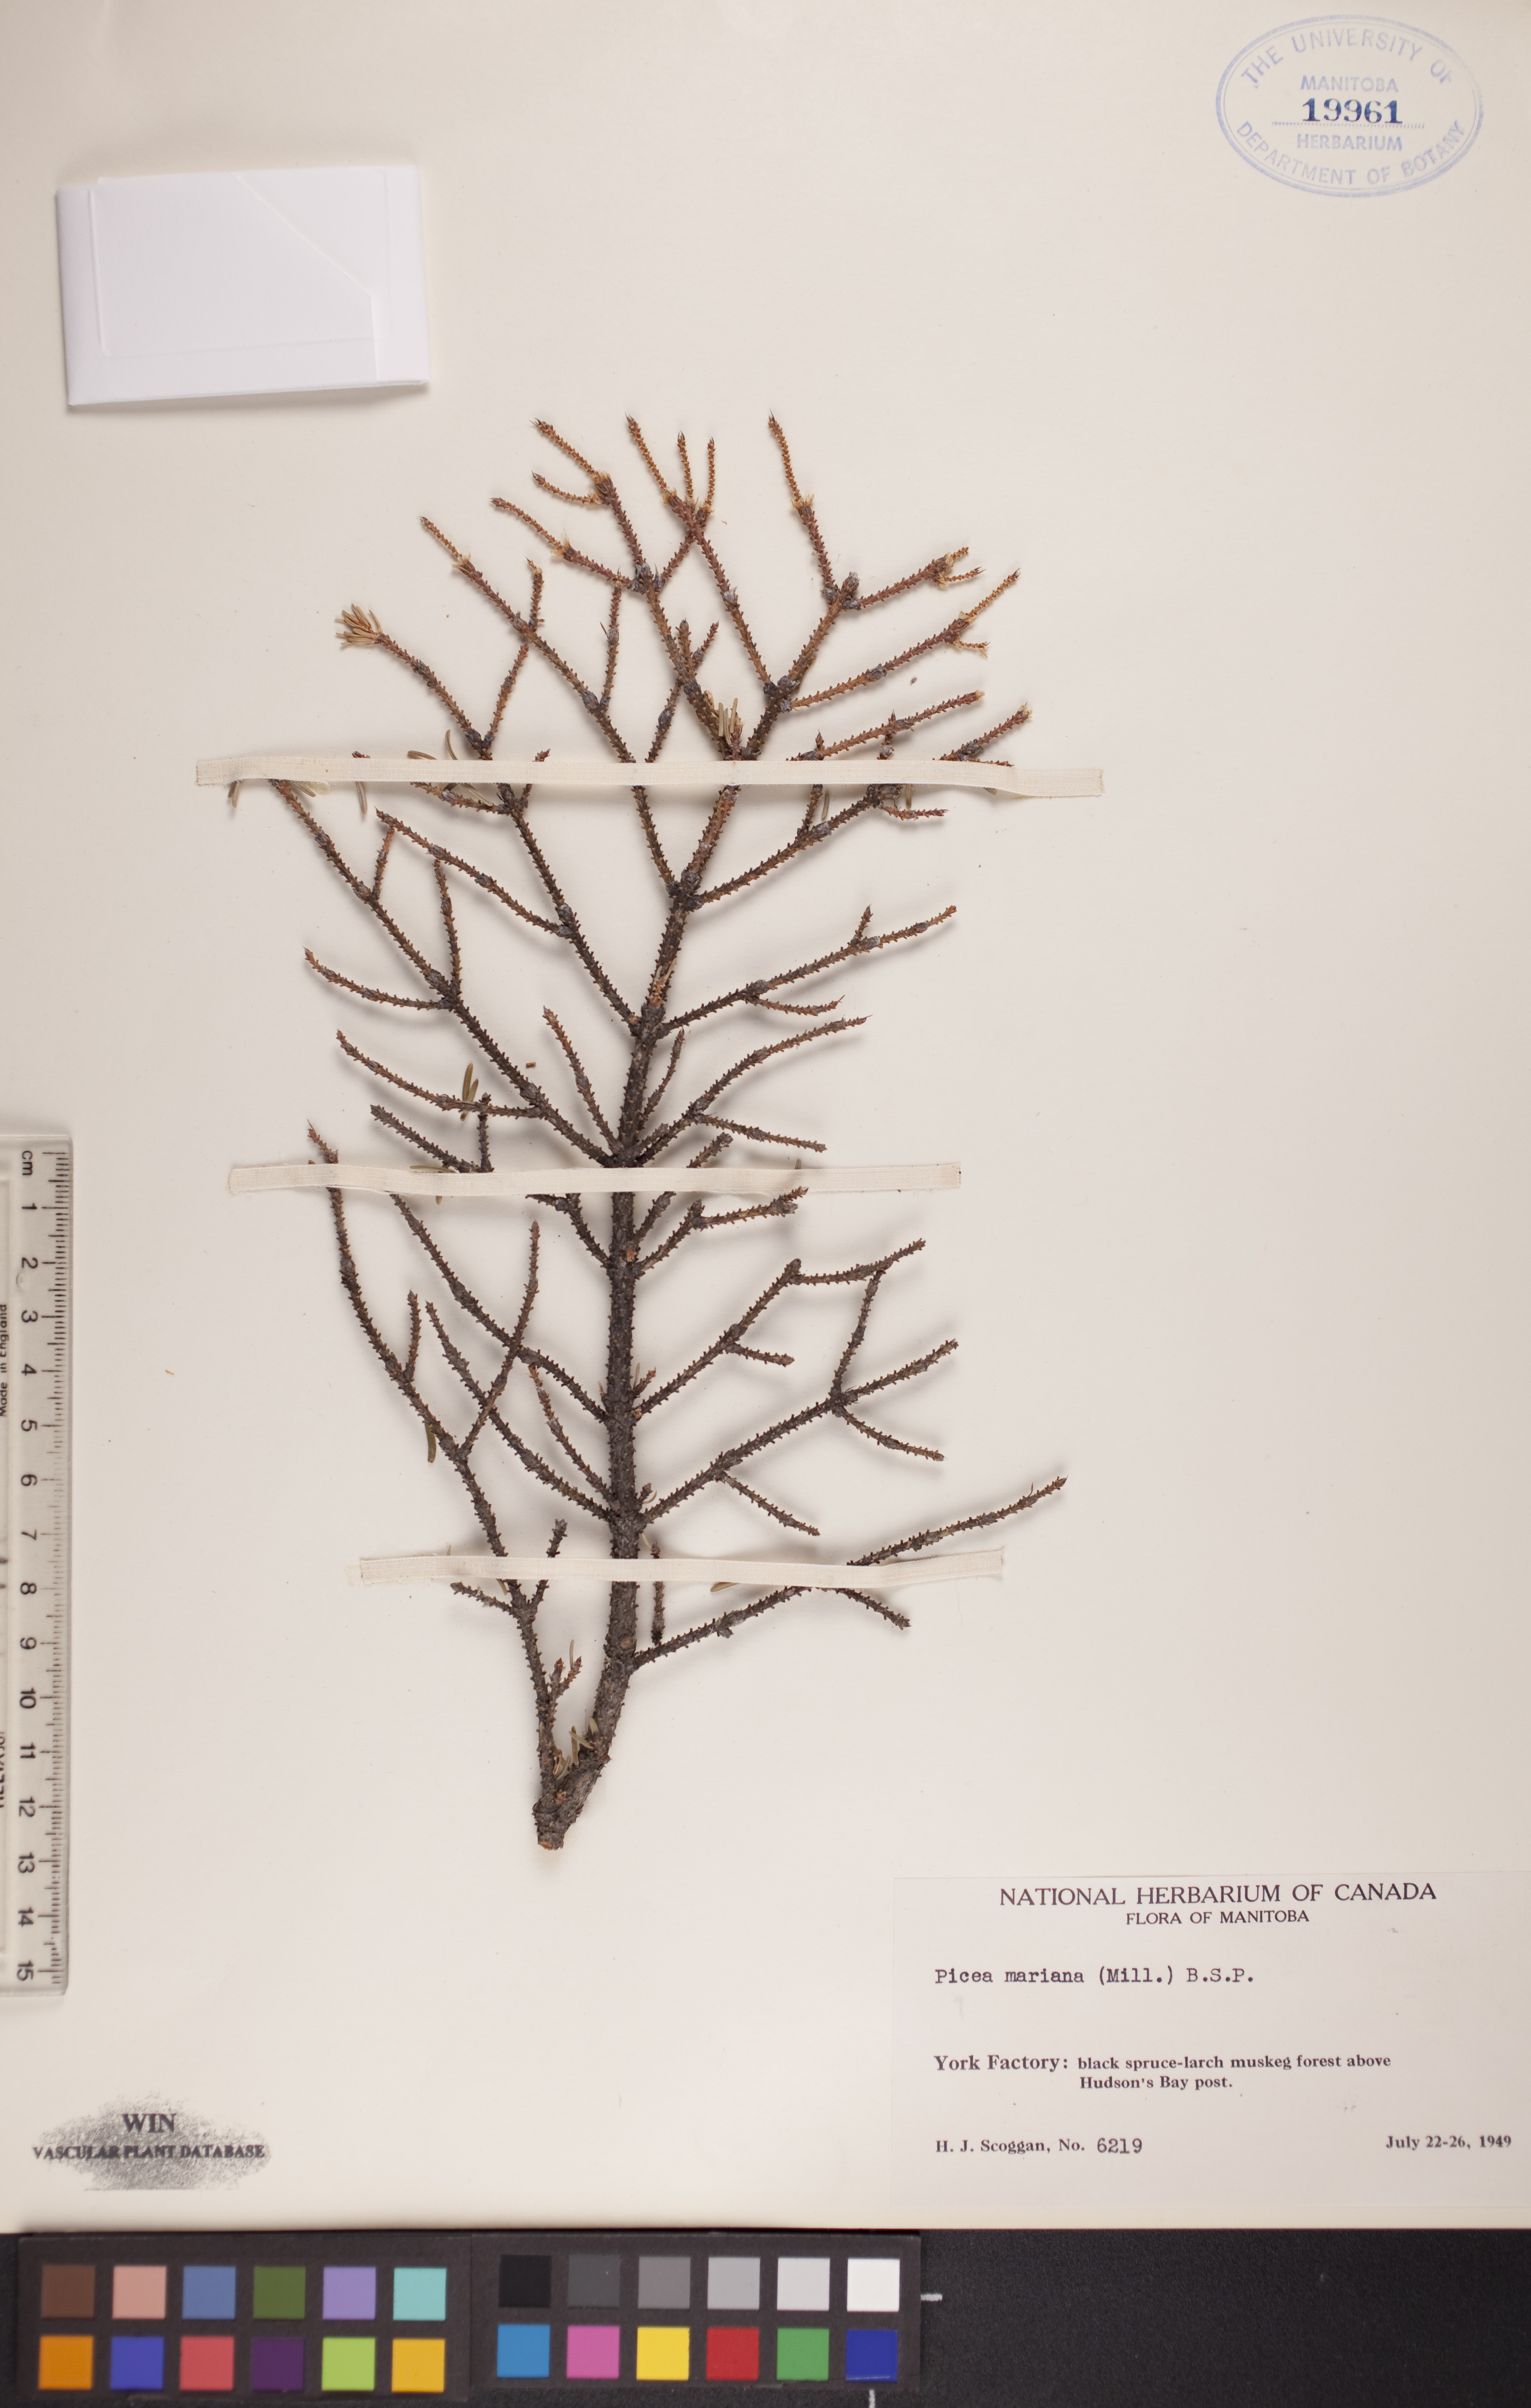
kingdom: Plantae
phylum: Tracheophyta
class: Pinopsida
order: Pinales
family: Pinaceae
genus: Picea
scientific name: Picea mariana
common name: Black spruce
